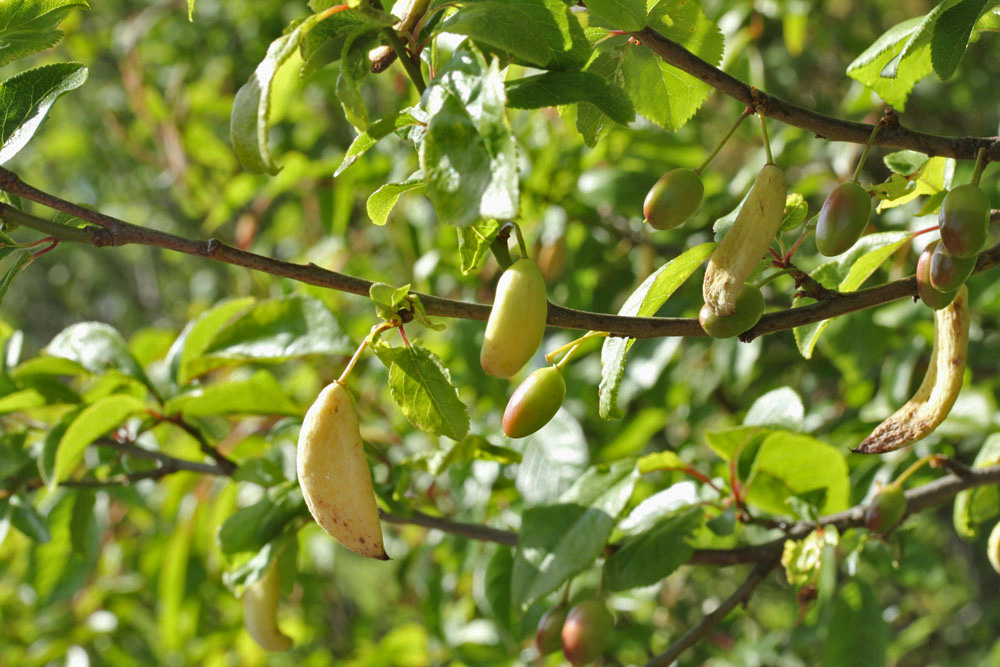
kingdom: Fungi
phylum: Ascomycota
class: Taphrinomycetes
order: Taphrinales
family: Taphrinaceae
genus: Taphrina
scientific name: Taphrina pruni
